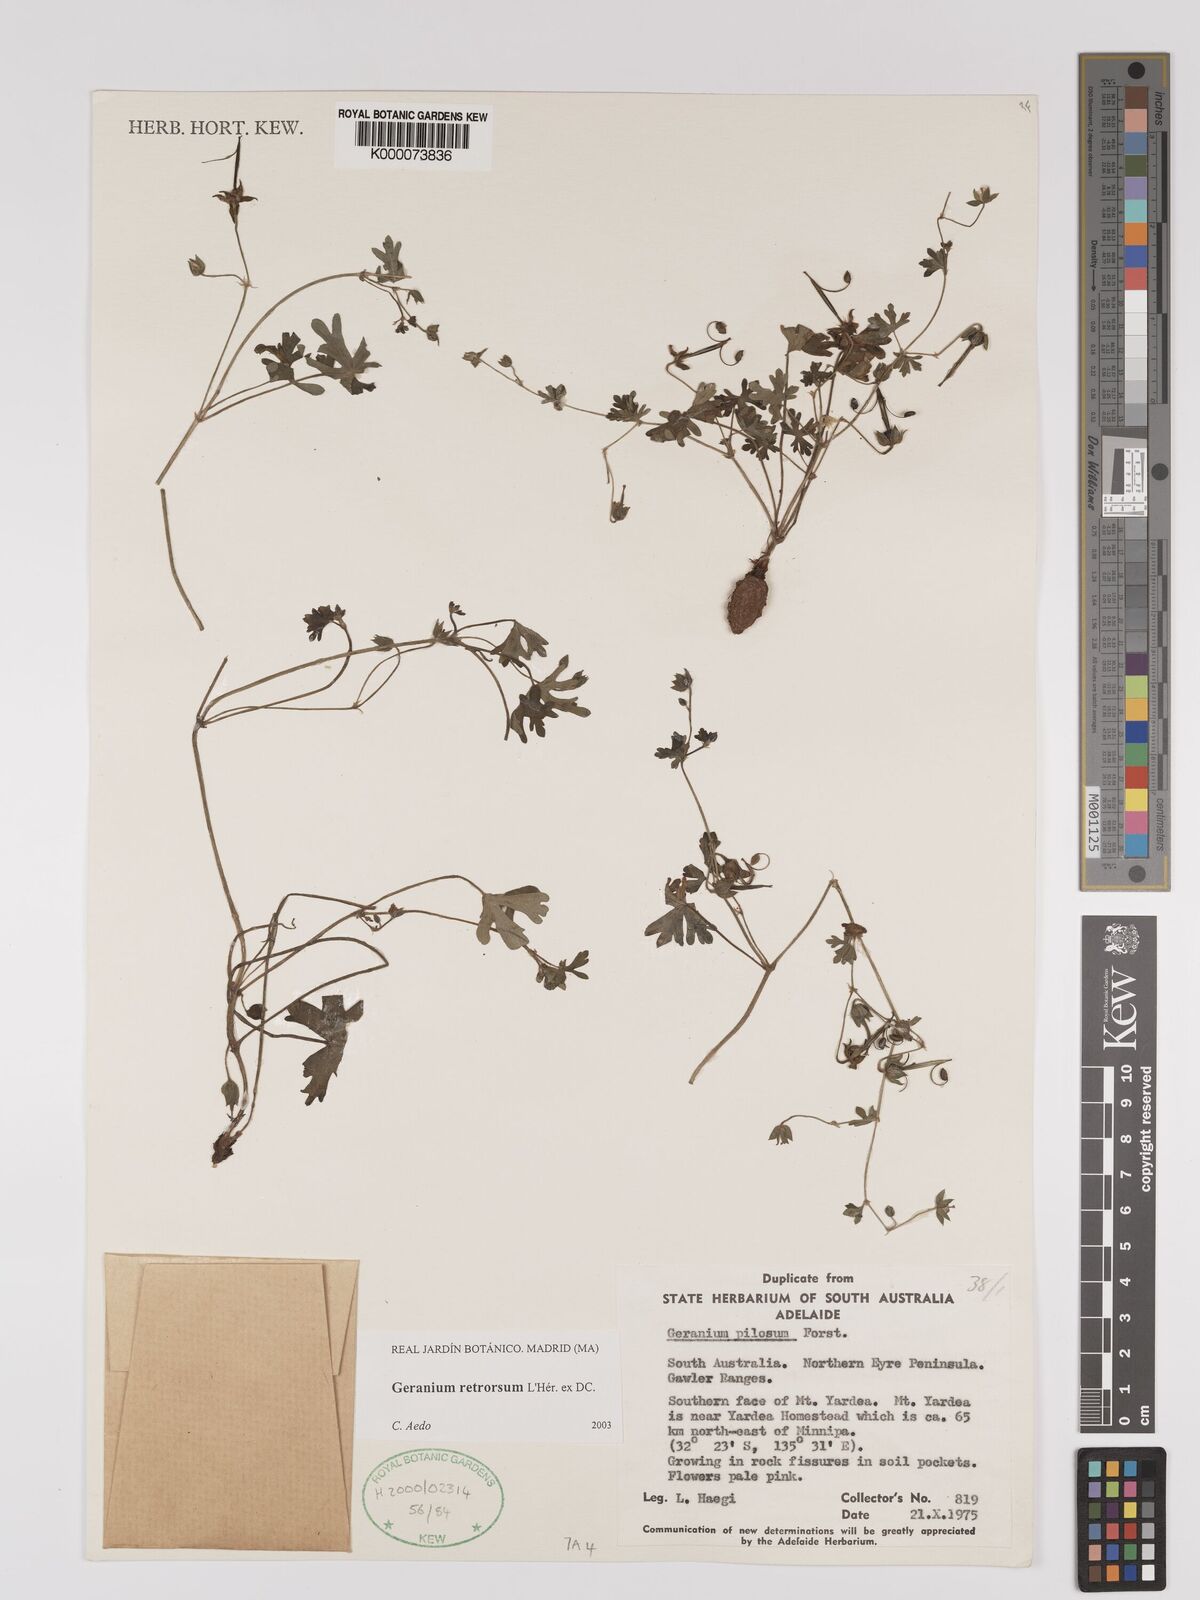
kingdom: Plantae
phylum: Tracheophyta
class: Magnoliopsida
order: Geraniales
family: Geraniaceae
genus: Geranium
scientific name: Geranium retrorsum
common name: New zealand geranium
